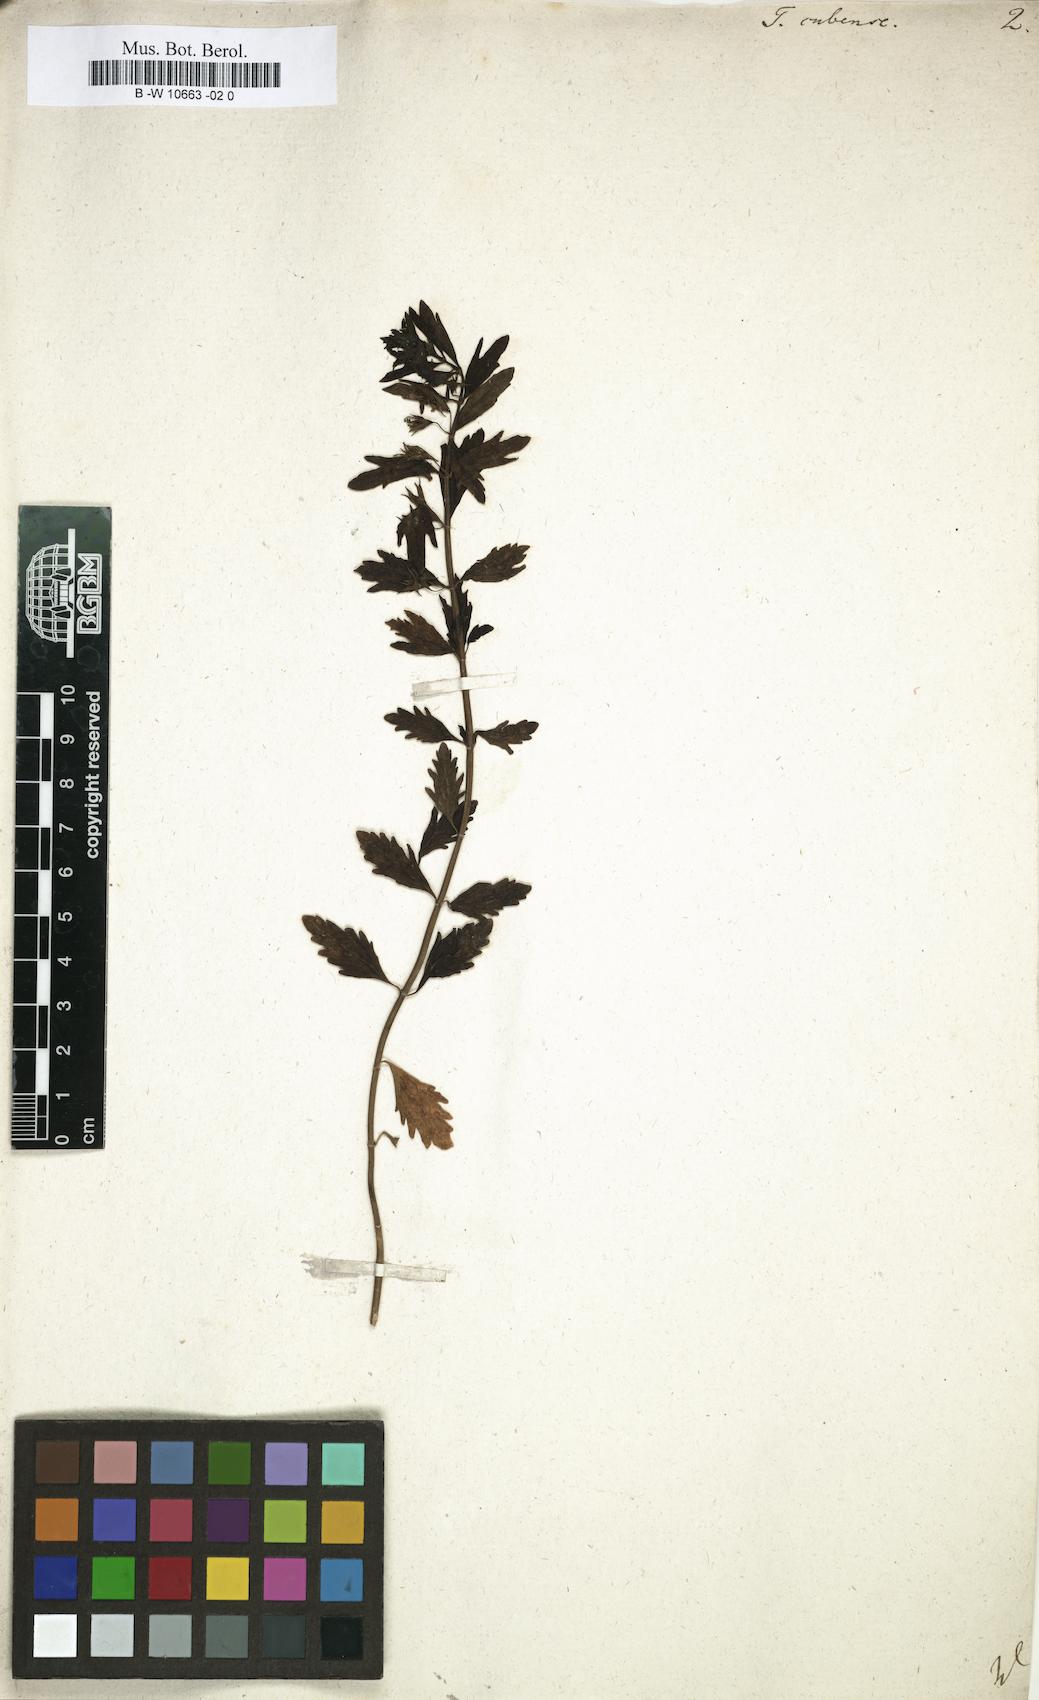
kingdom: Plantae
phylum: Tracheophyta
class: Magnoliopsida
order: Lamiales
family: Lamiaceae
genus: Teucrium
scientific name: Teucrium cubense
